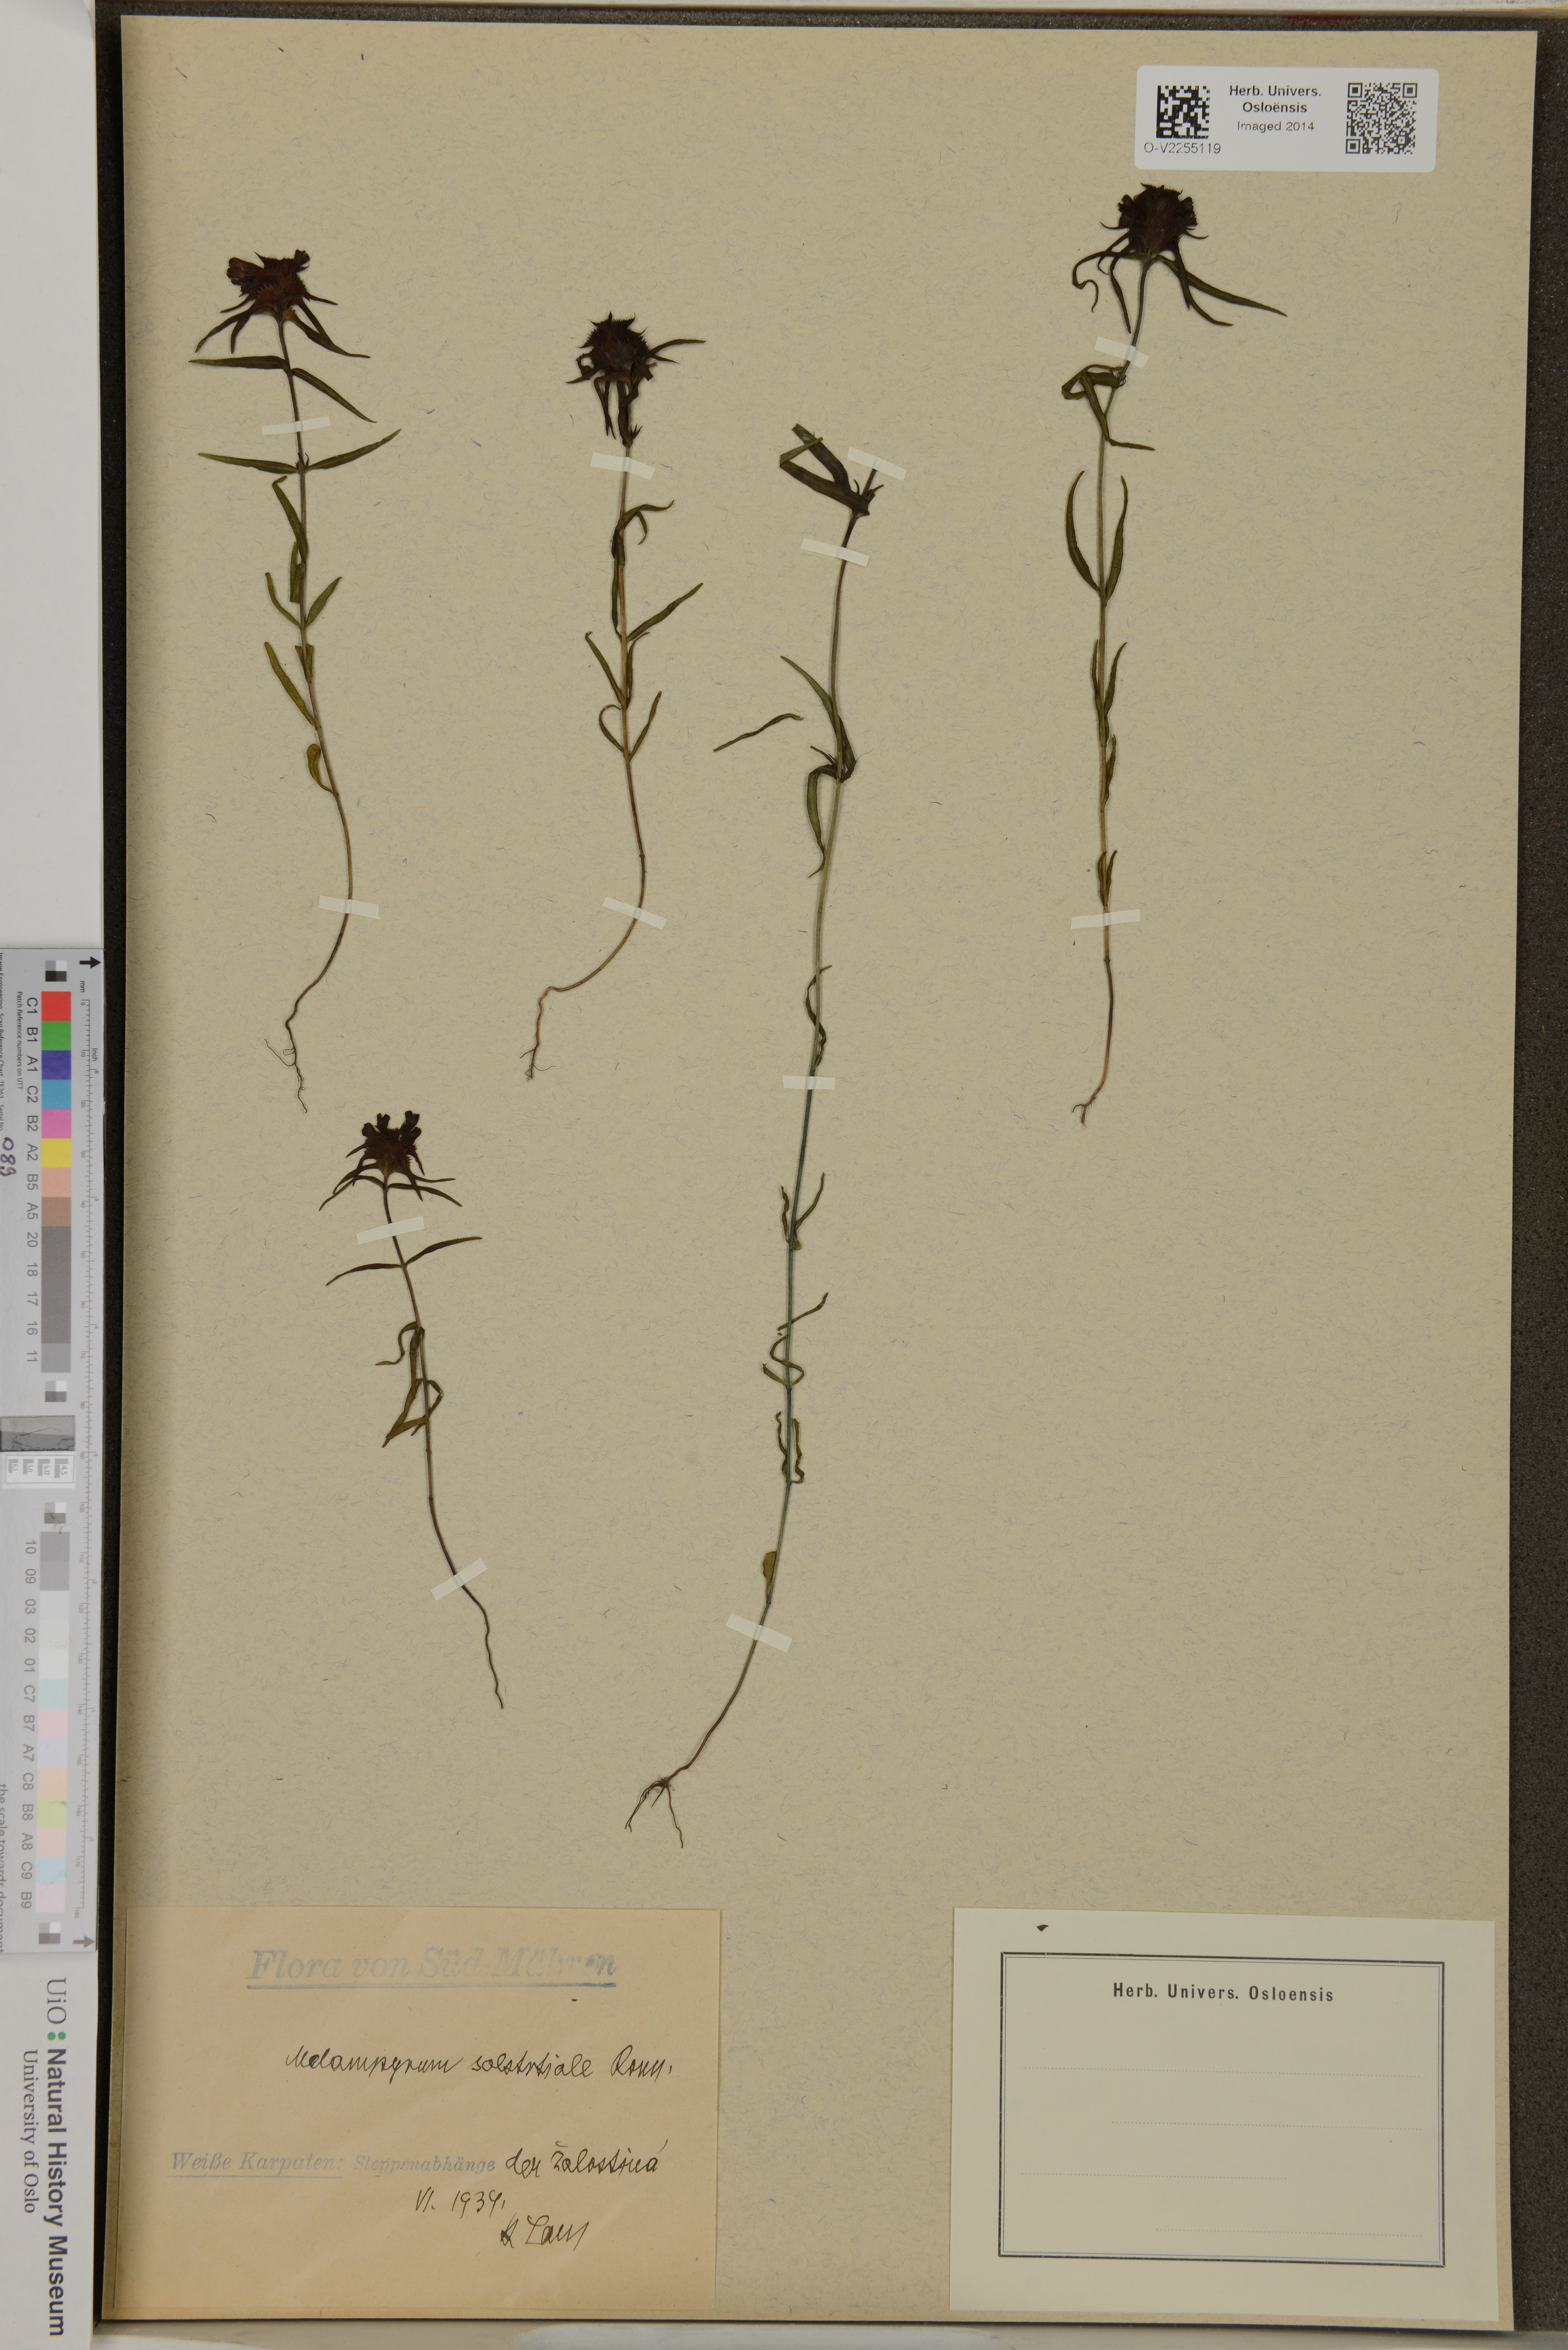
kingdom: Plantae
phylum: Tracheophyta
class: Magnoliopsida
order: Lamiales
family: Orobanchaceae
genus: Melampyrum
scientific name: Melampyrum cristatum
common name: Crested cow-wheat
